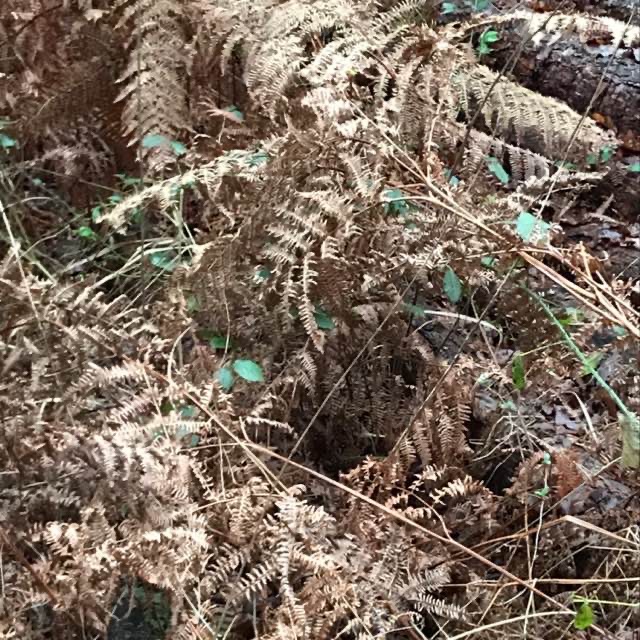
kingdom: Plantae
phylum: Tracheophyta
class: Polypodiopsida
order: Polypodiales
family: Dennstaedtiaceae
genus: Pteridium
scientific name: Pteridium aquilinum
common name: Ørnebregne
